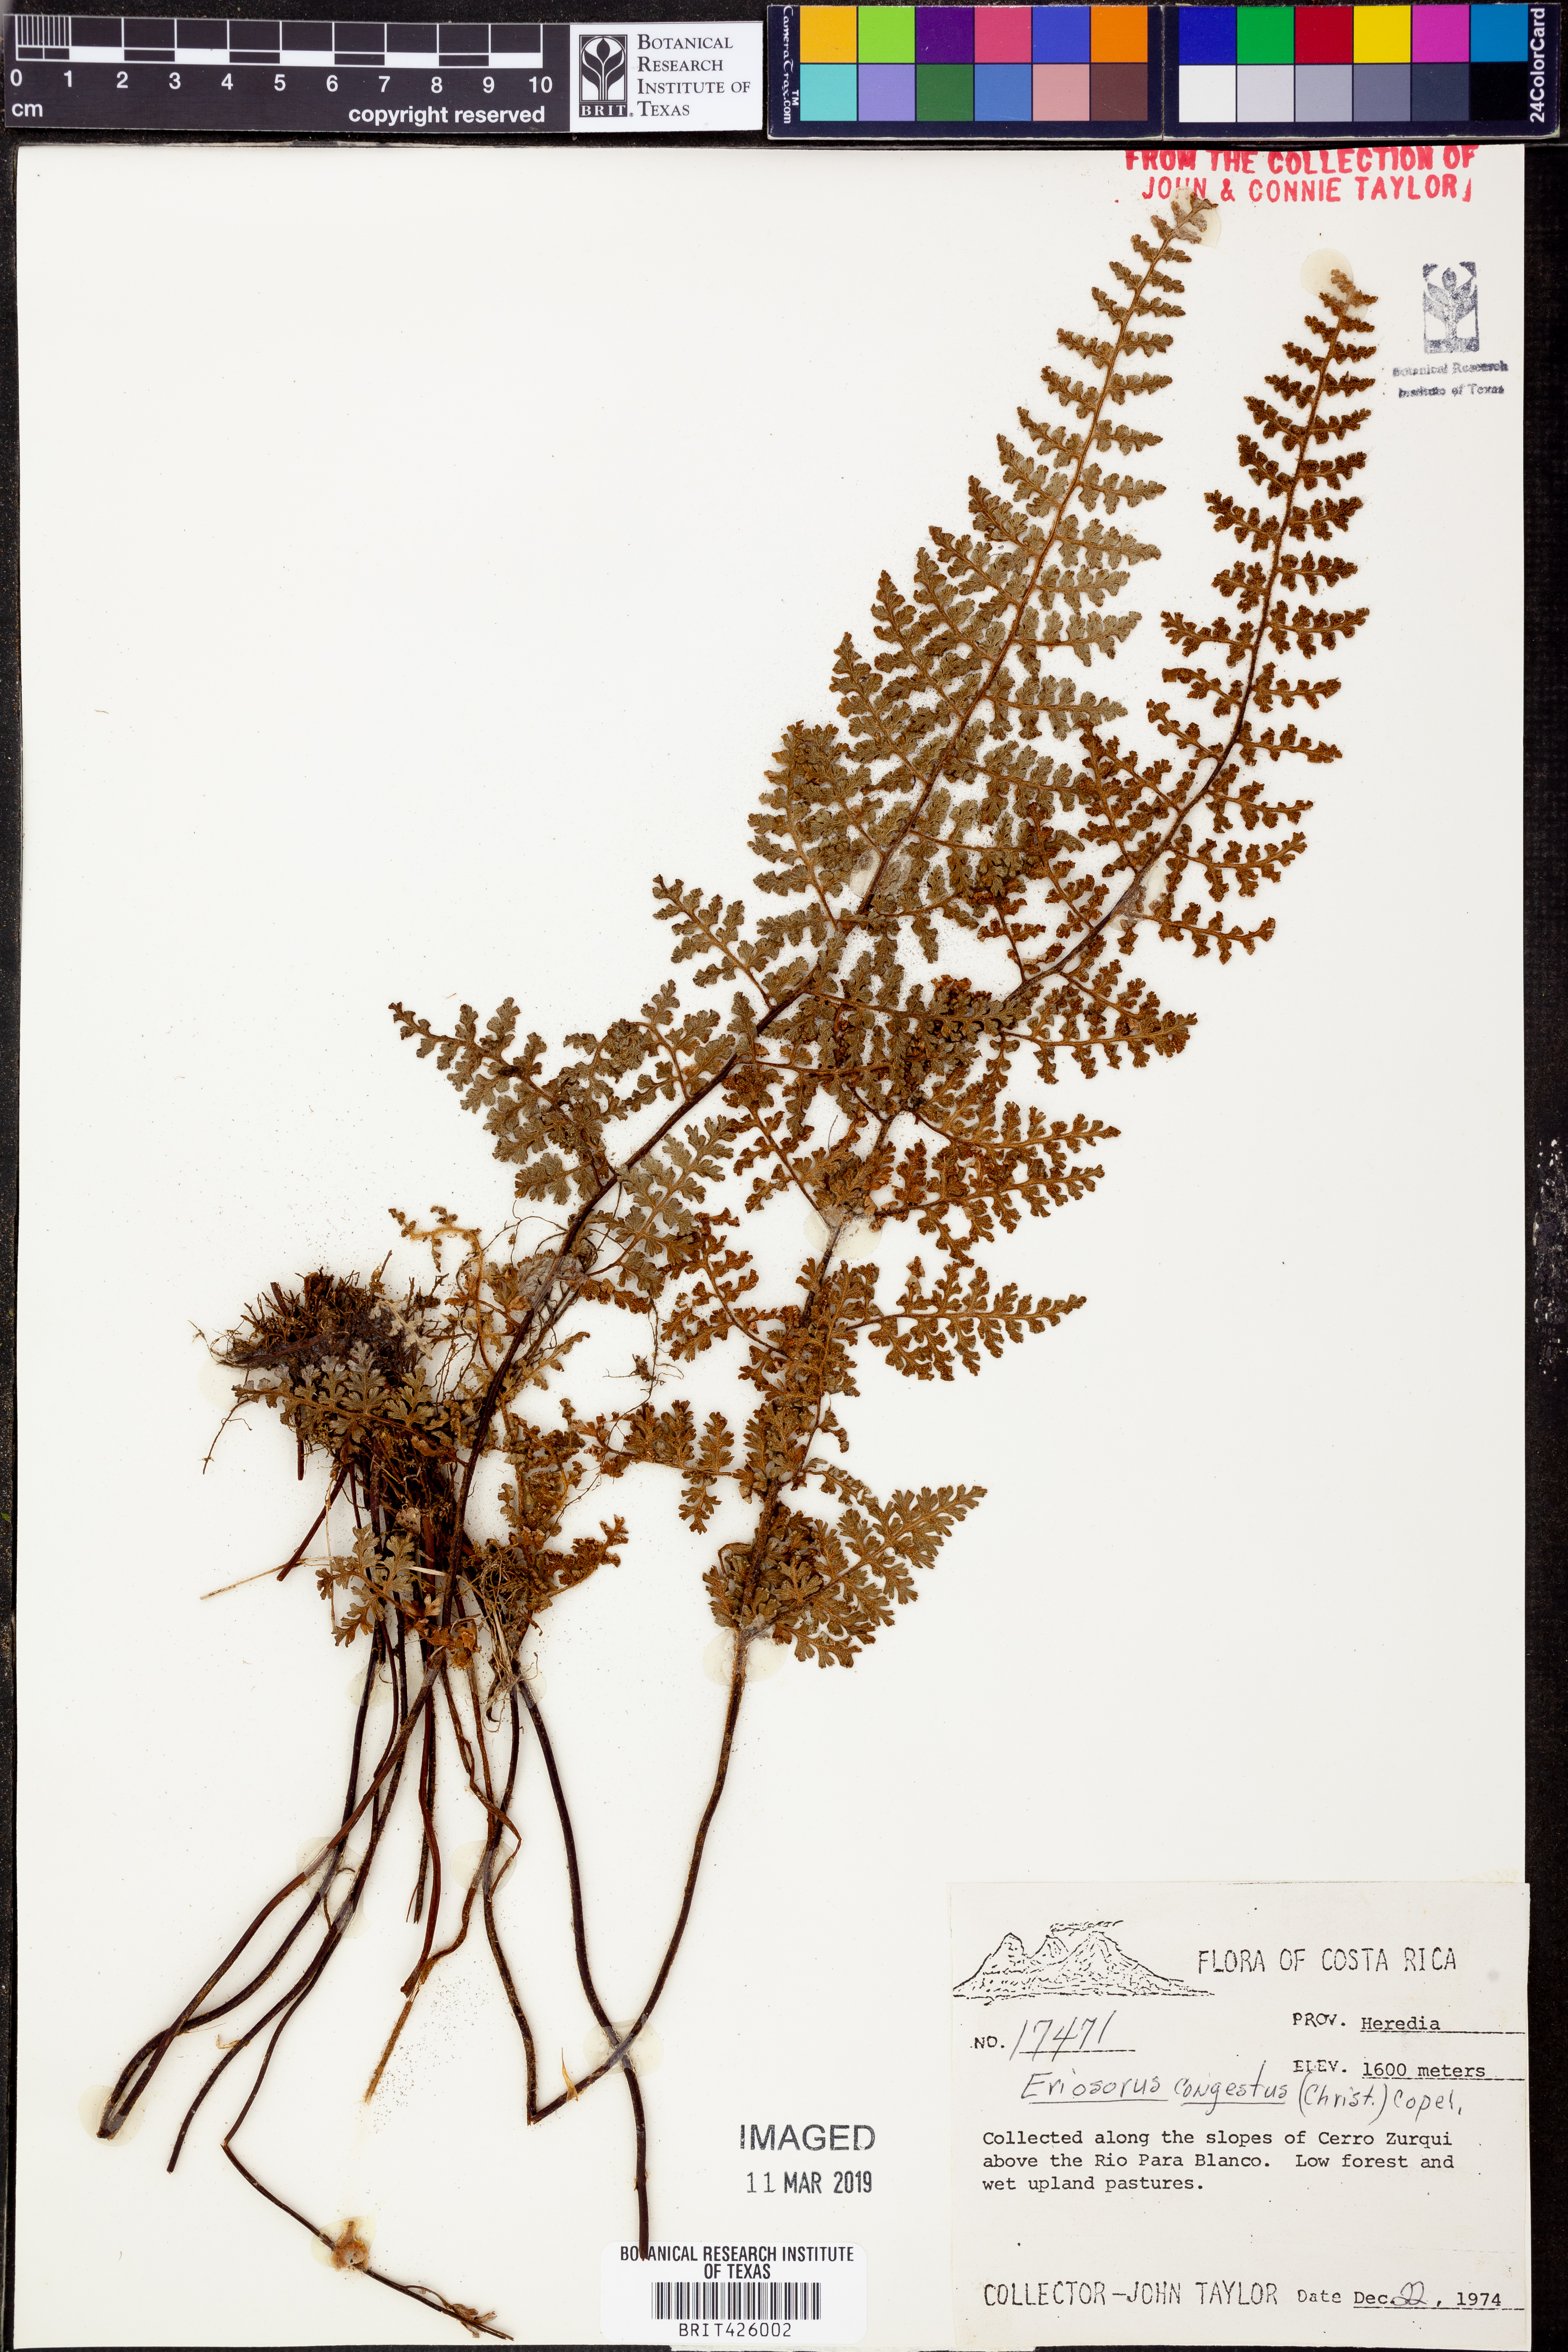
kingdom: Plantae
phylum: Tracheophyta
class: Polypodiopsida
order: Polypodiales
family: Pteridaceae
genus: Jamesonia
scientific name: Jamesonia congesta
